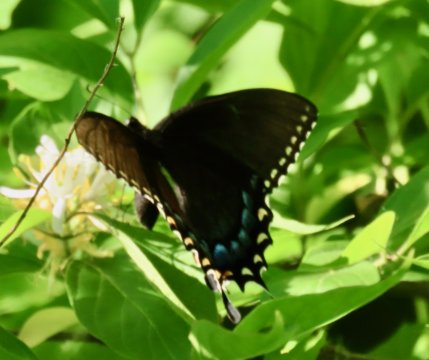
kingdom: Animalia
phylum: Arthropoda
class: Insecta
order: Lepidoptera
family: Papilionidae
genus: Pterourus
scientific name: Pterourus glaucus
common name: Eastern Tiger Swallowtail
